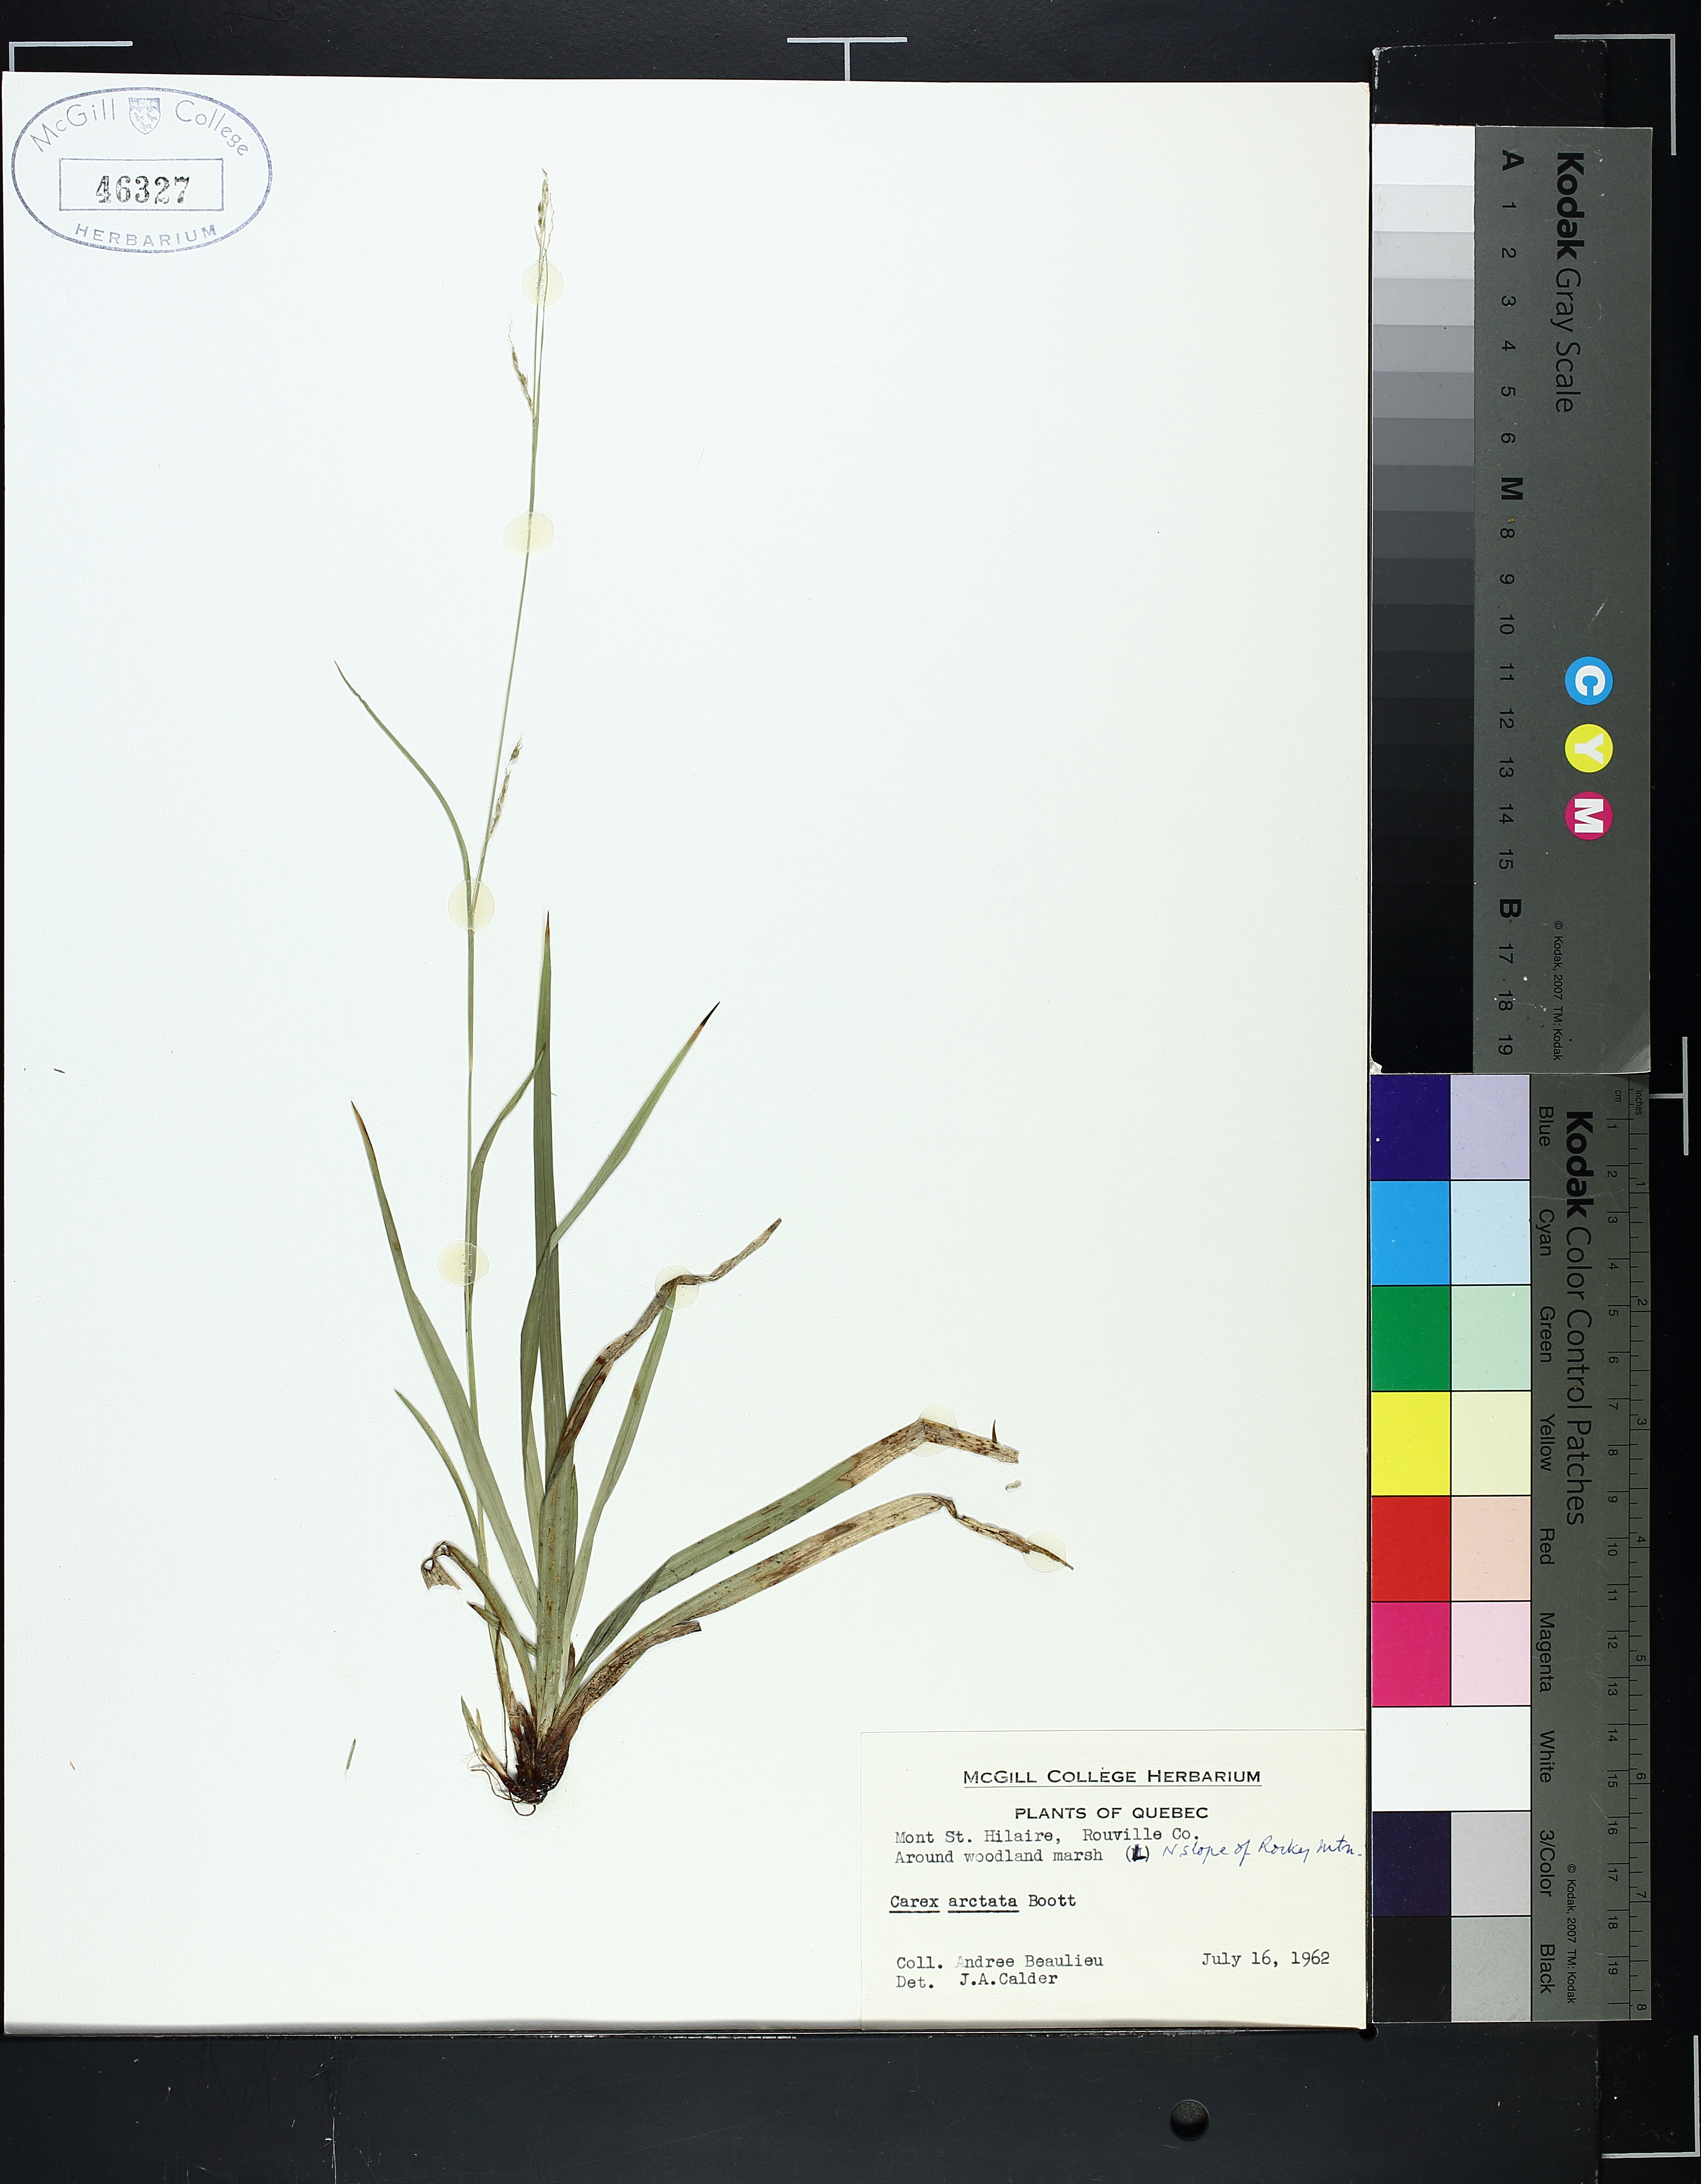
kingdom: Plantae
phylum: Tracheophyta
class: Liliopsida
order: Poales
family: Cyperaceae
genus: Carex
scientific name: Carex arctata
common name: Black sedge
